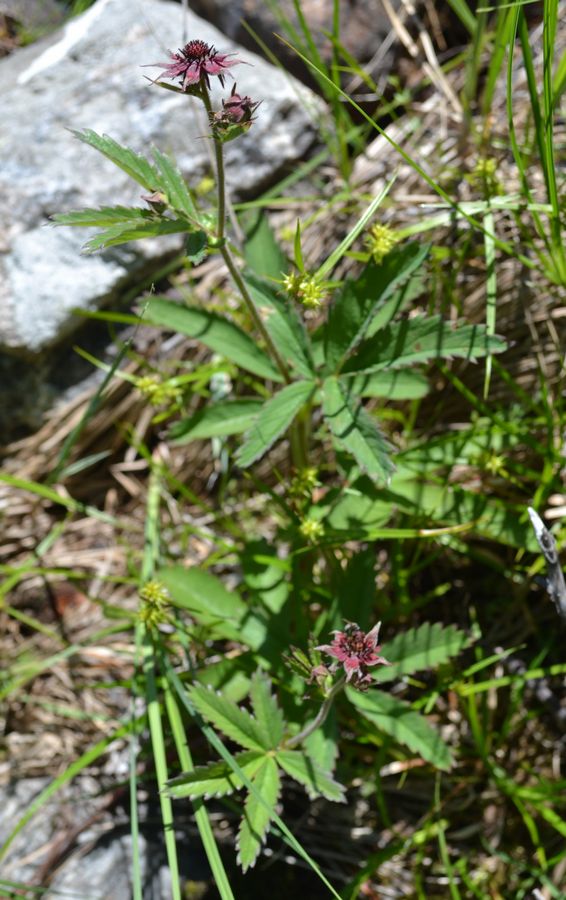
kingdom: Plantae
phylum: Tracheophyta
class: Magnoliopsida
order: Rosales
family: Rosaceae
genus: Comarum
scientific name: Comarum palustre
